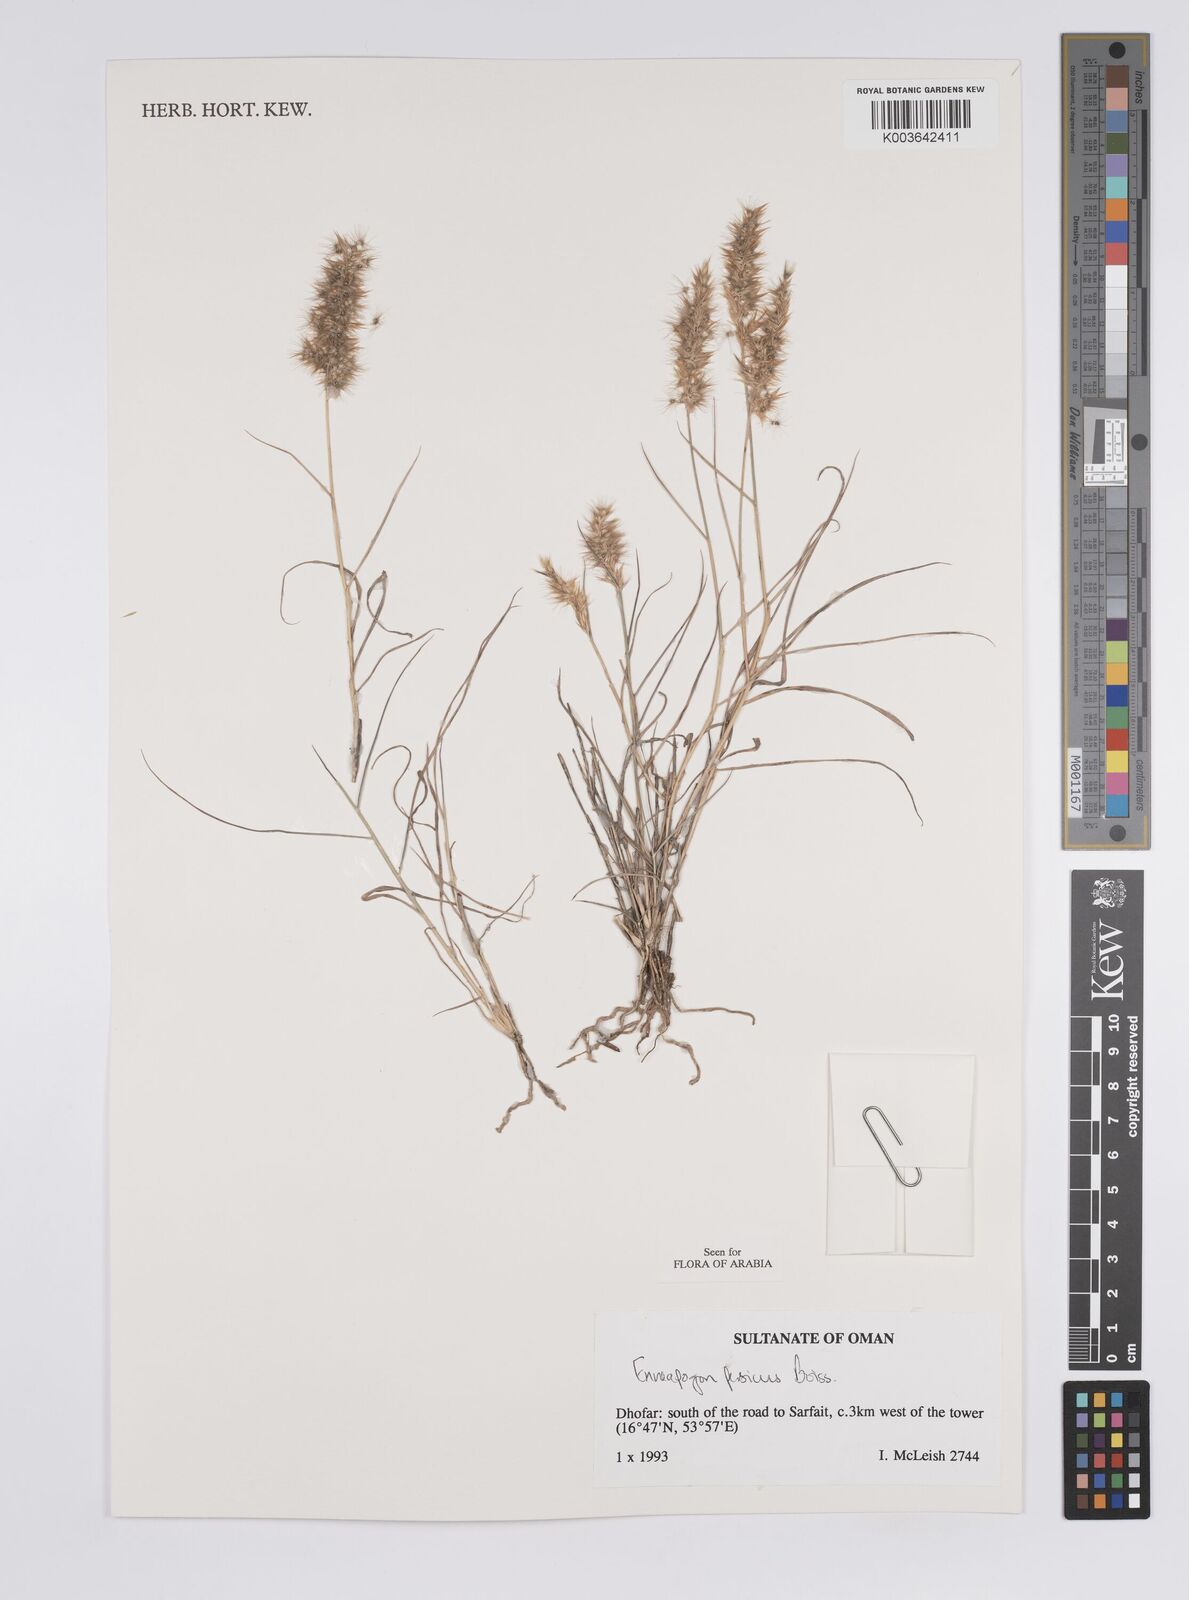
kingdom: Plantae
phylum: Tracheophyta
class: Liliopsida
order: Poales
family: Poaceae
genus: Enneapogon
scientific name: Enneapogon persicus
